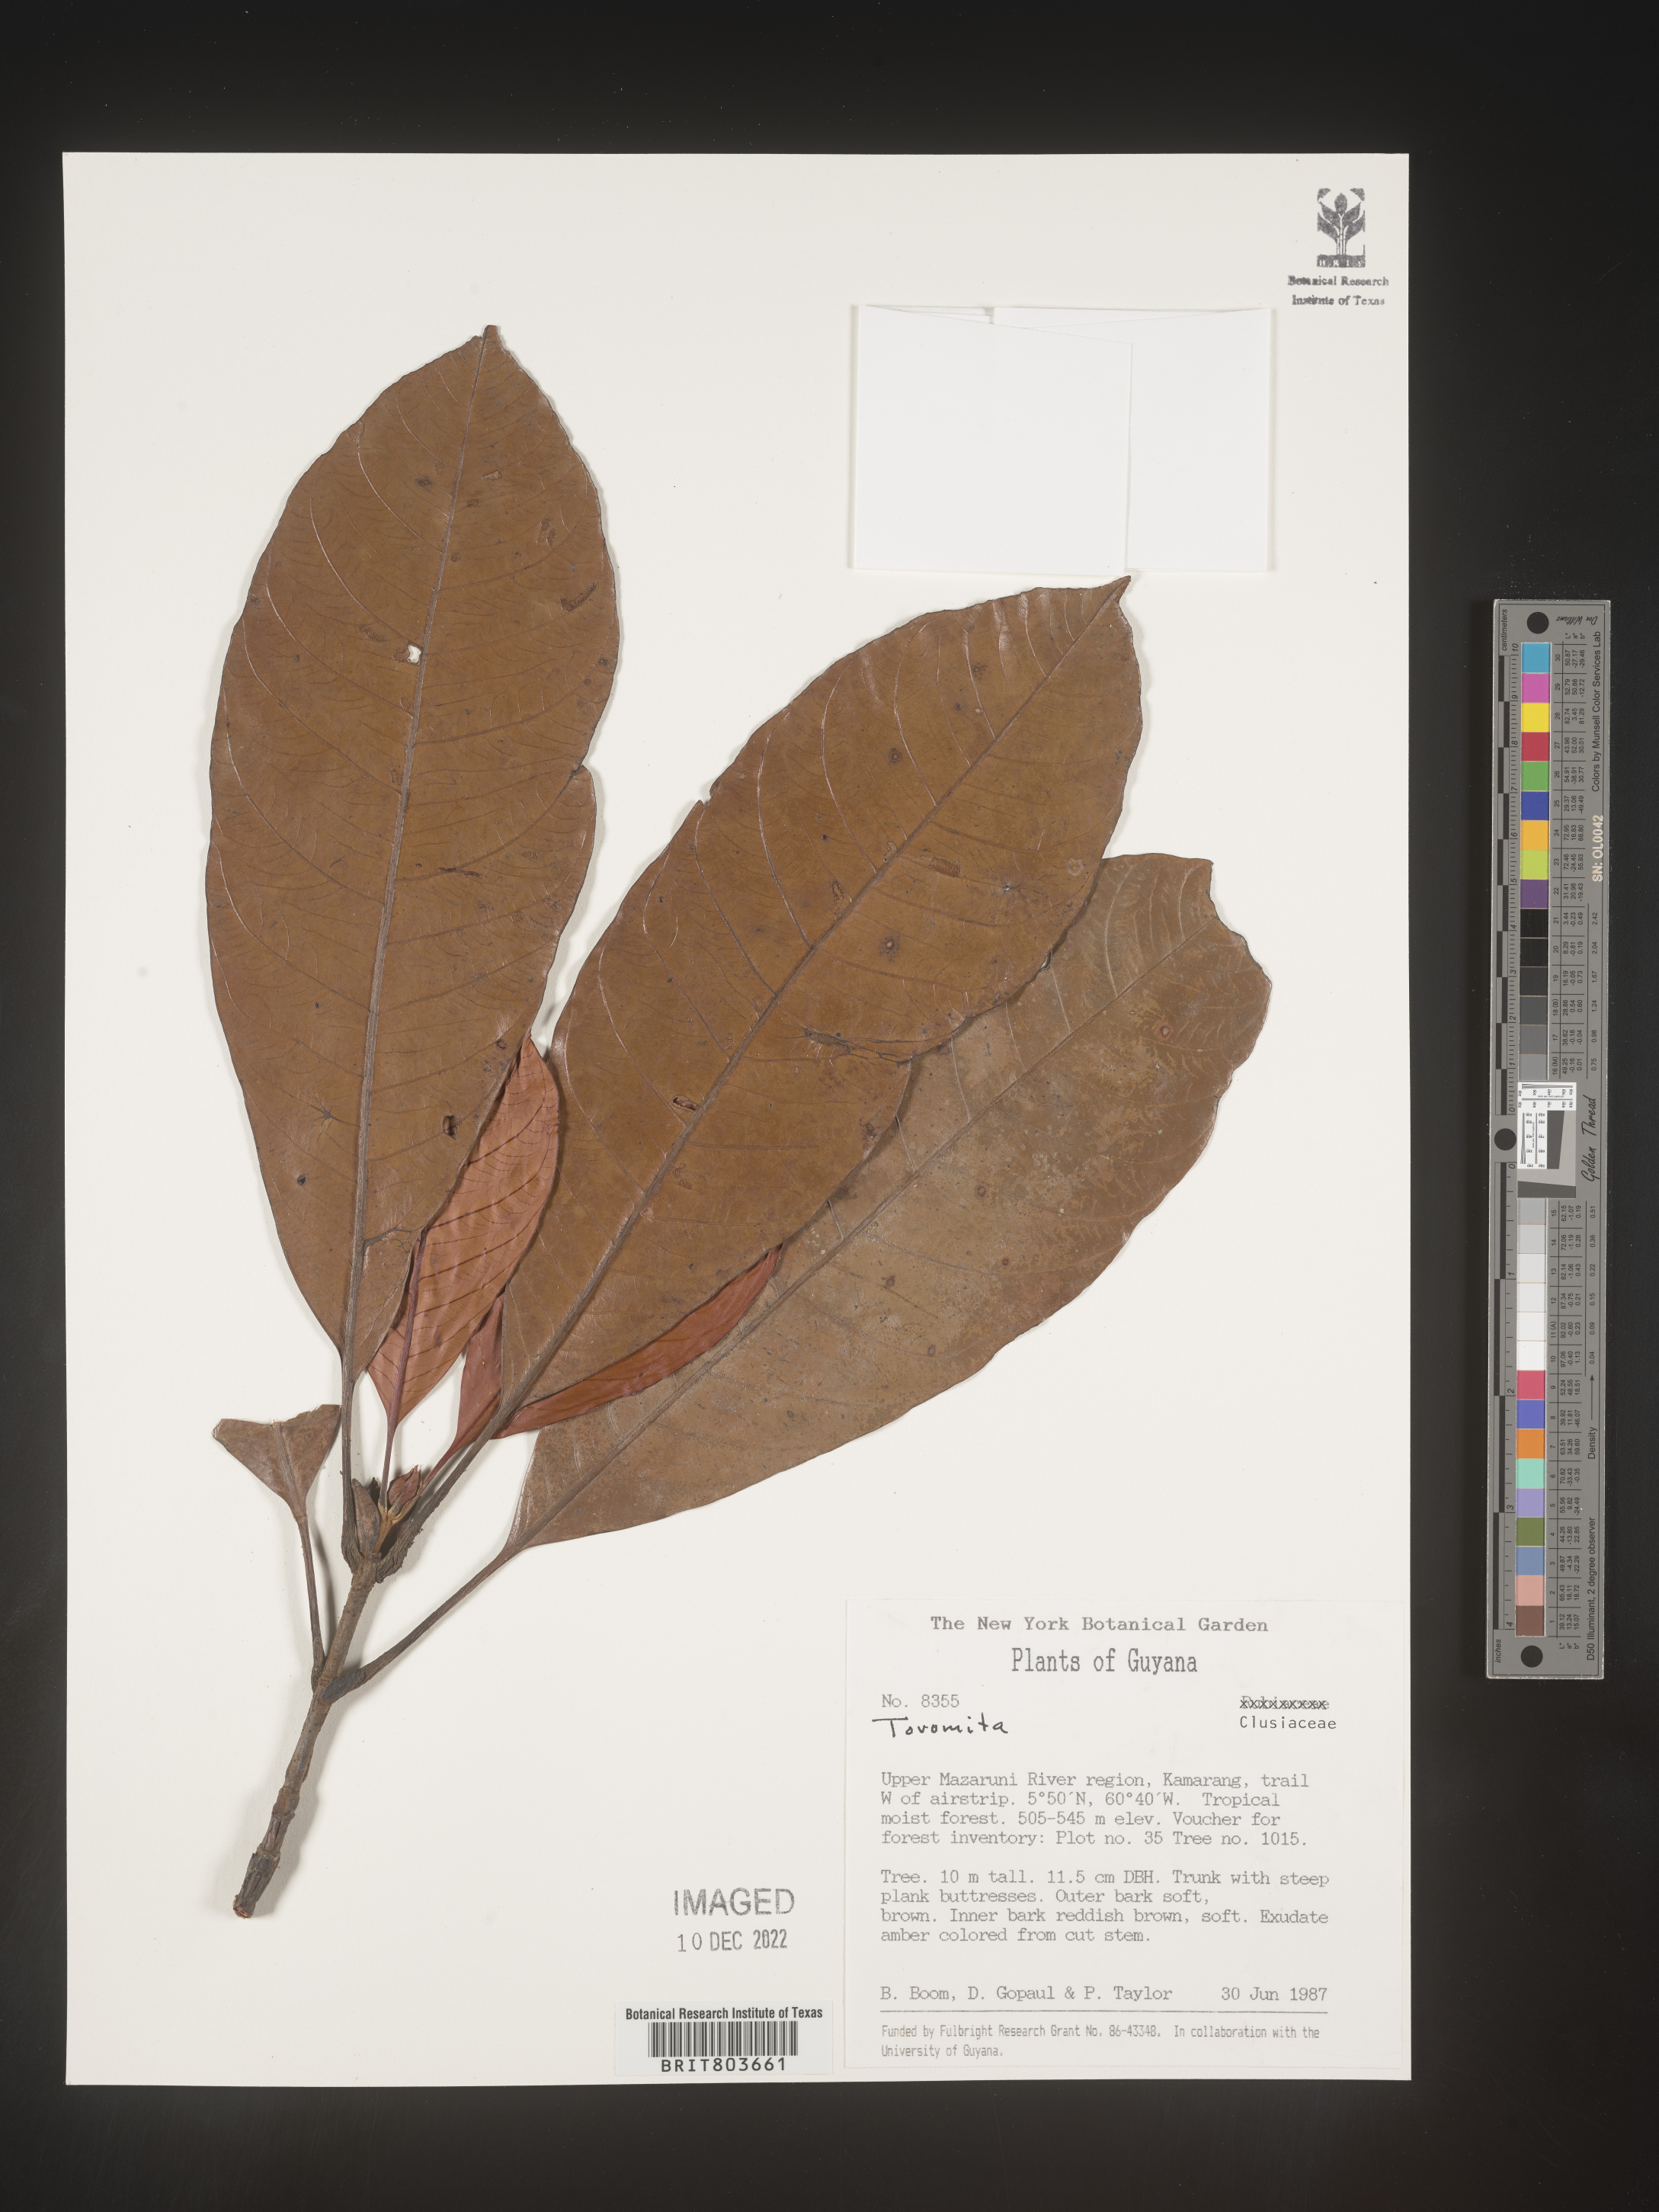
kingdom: Plantae
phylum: Tracheophyta
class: Magnoliopsida
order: Malpighiales
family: Clusiaceae
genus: Tovomita
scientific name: Tovomita
